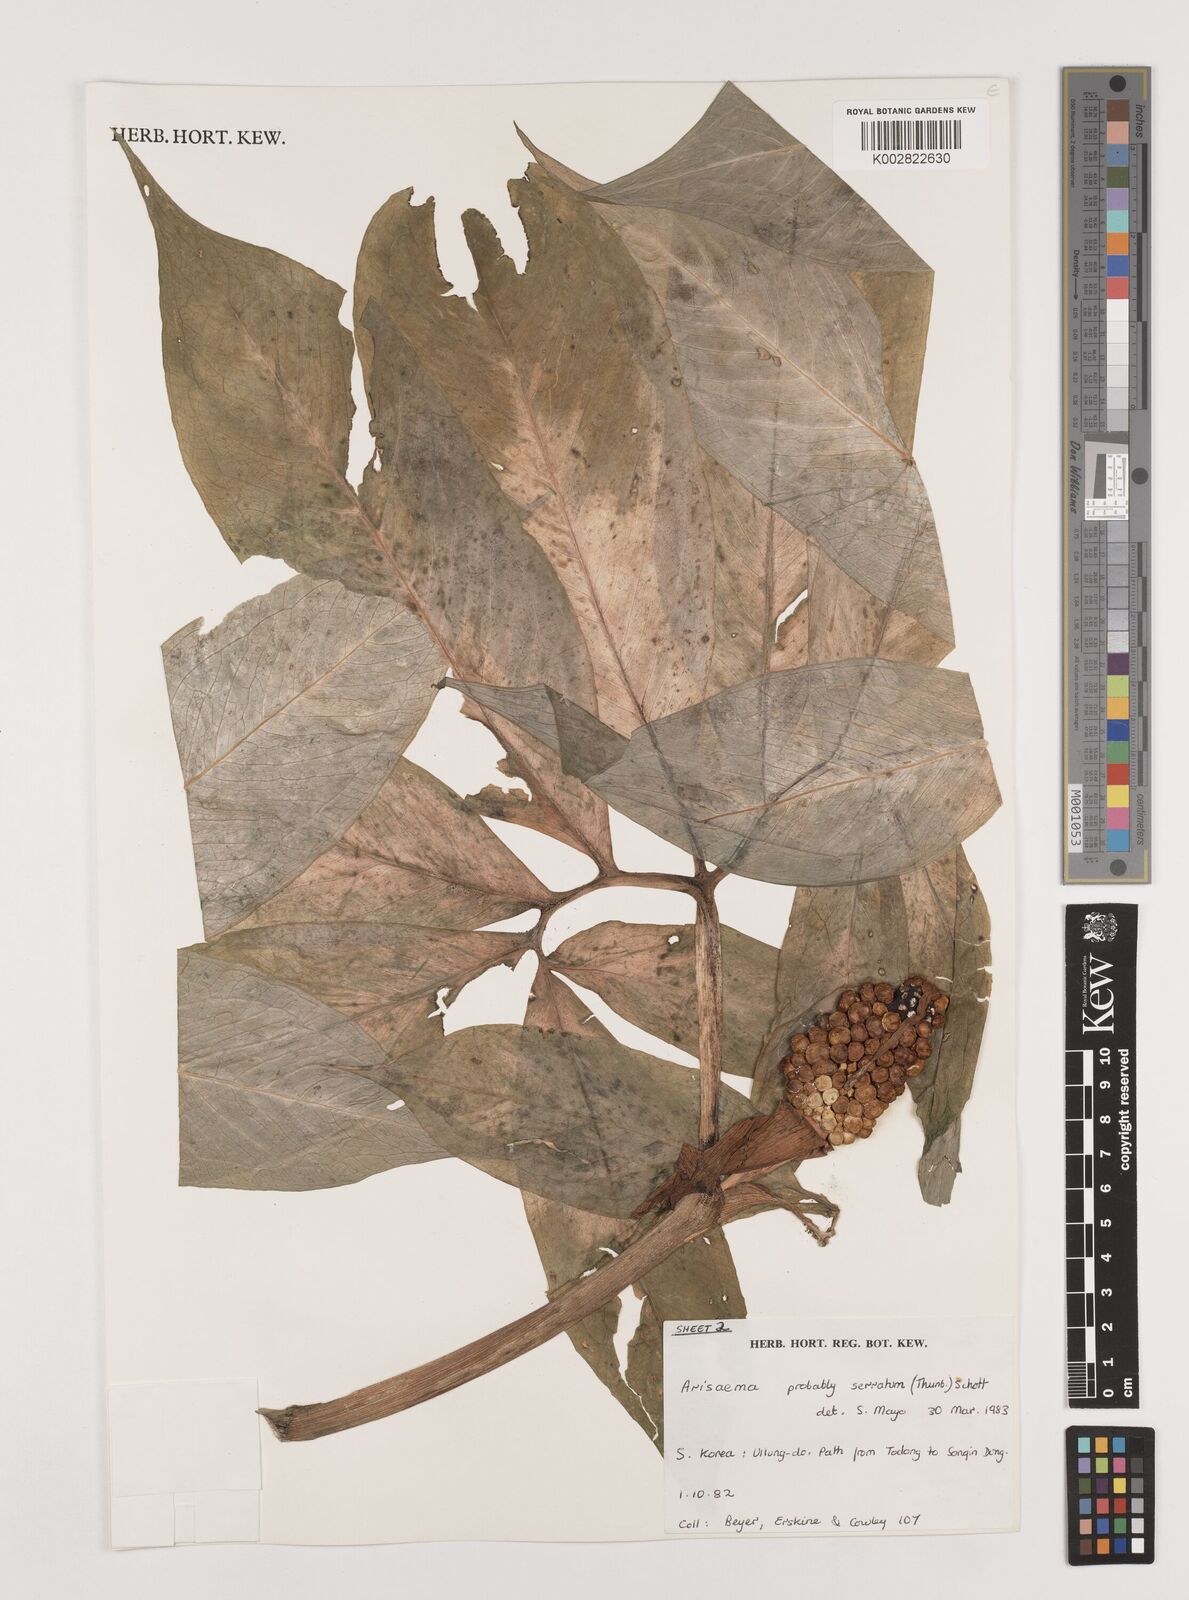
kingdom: Plantae
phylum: Tracheophyta
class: Liliopsida
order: Alismatales
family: Araceae
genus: Arisaema
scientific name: Arisaema serratum
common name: Japanese arisaema
